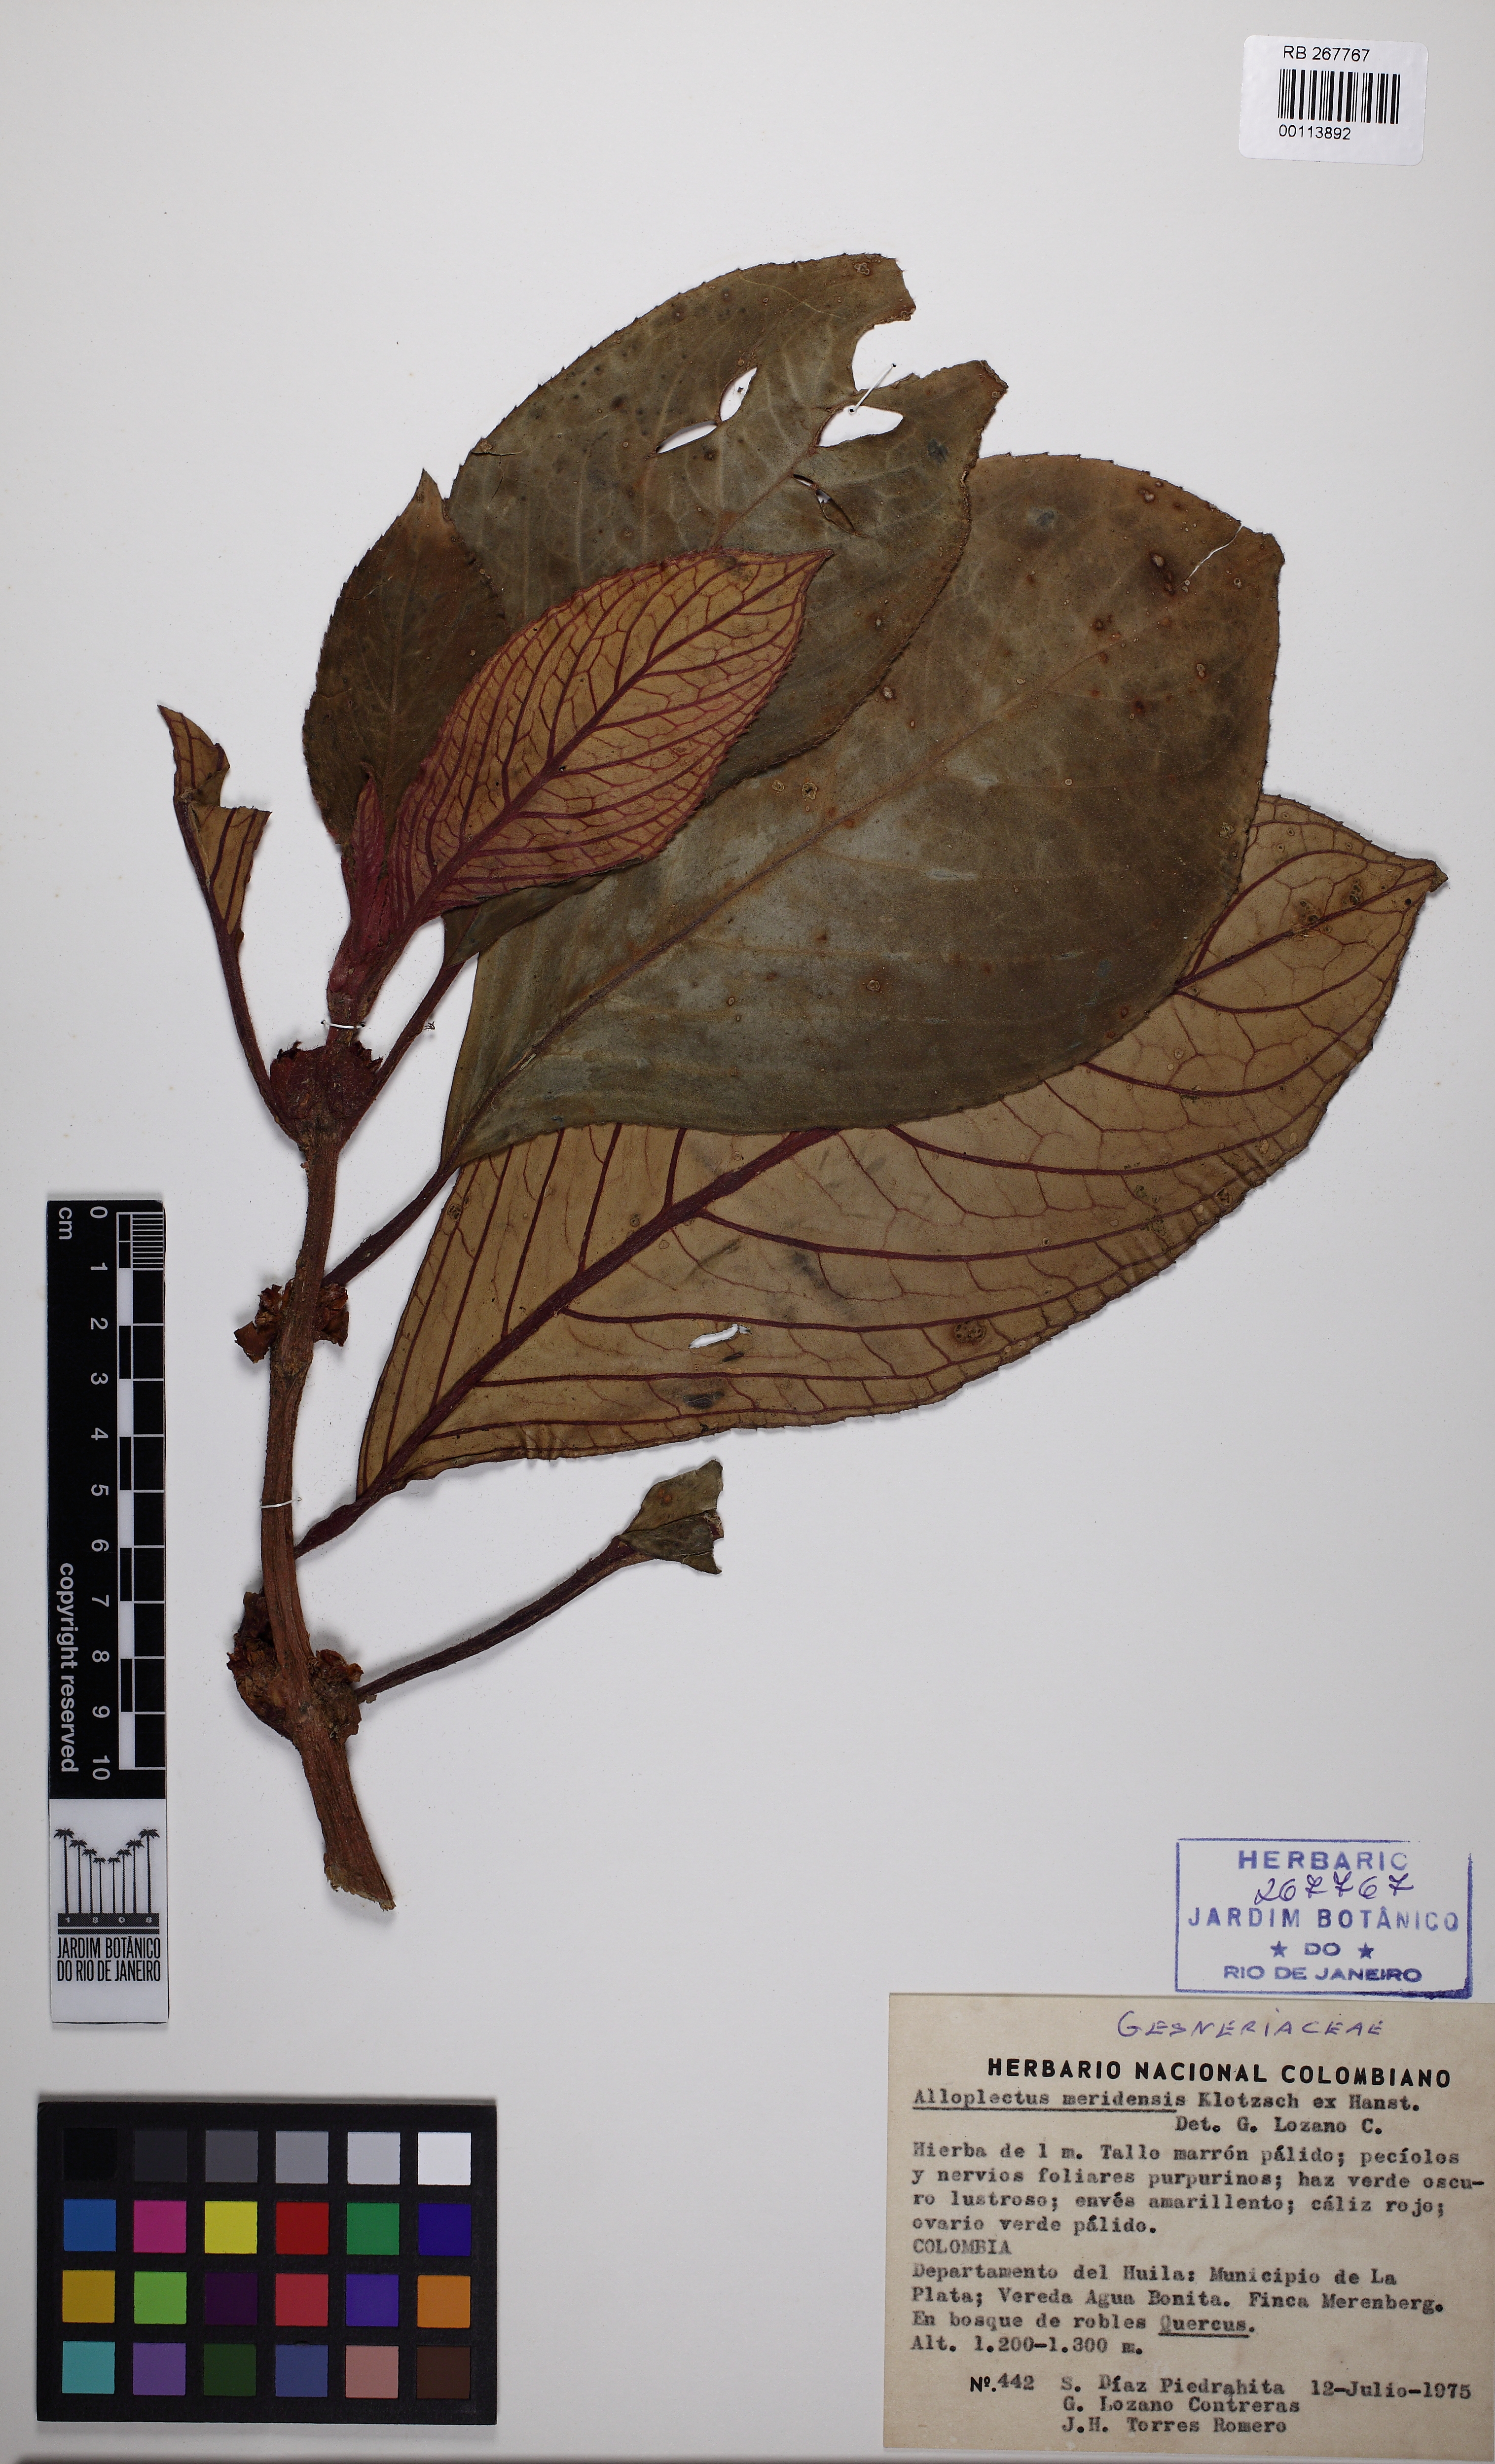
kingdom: Plantae
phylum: Tracheophyta
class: Magnoliopsida
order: Lamiales
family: Gesneriaceae
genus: Glossoloma
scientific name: Glossoloma ichthyoderma
